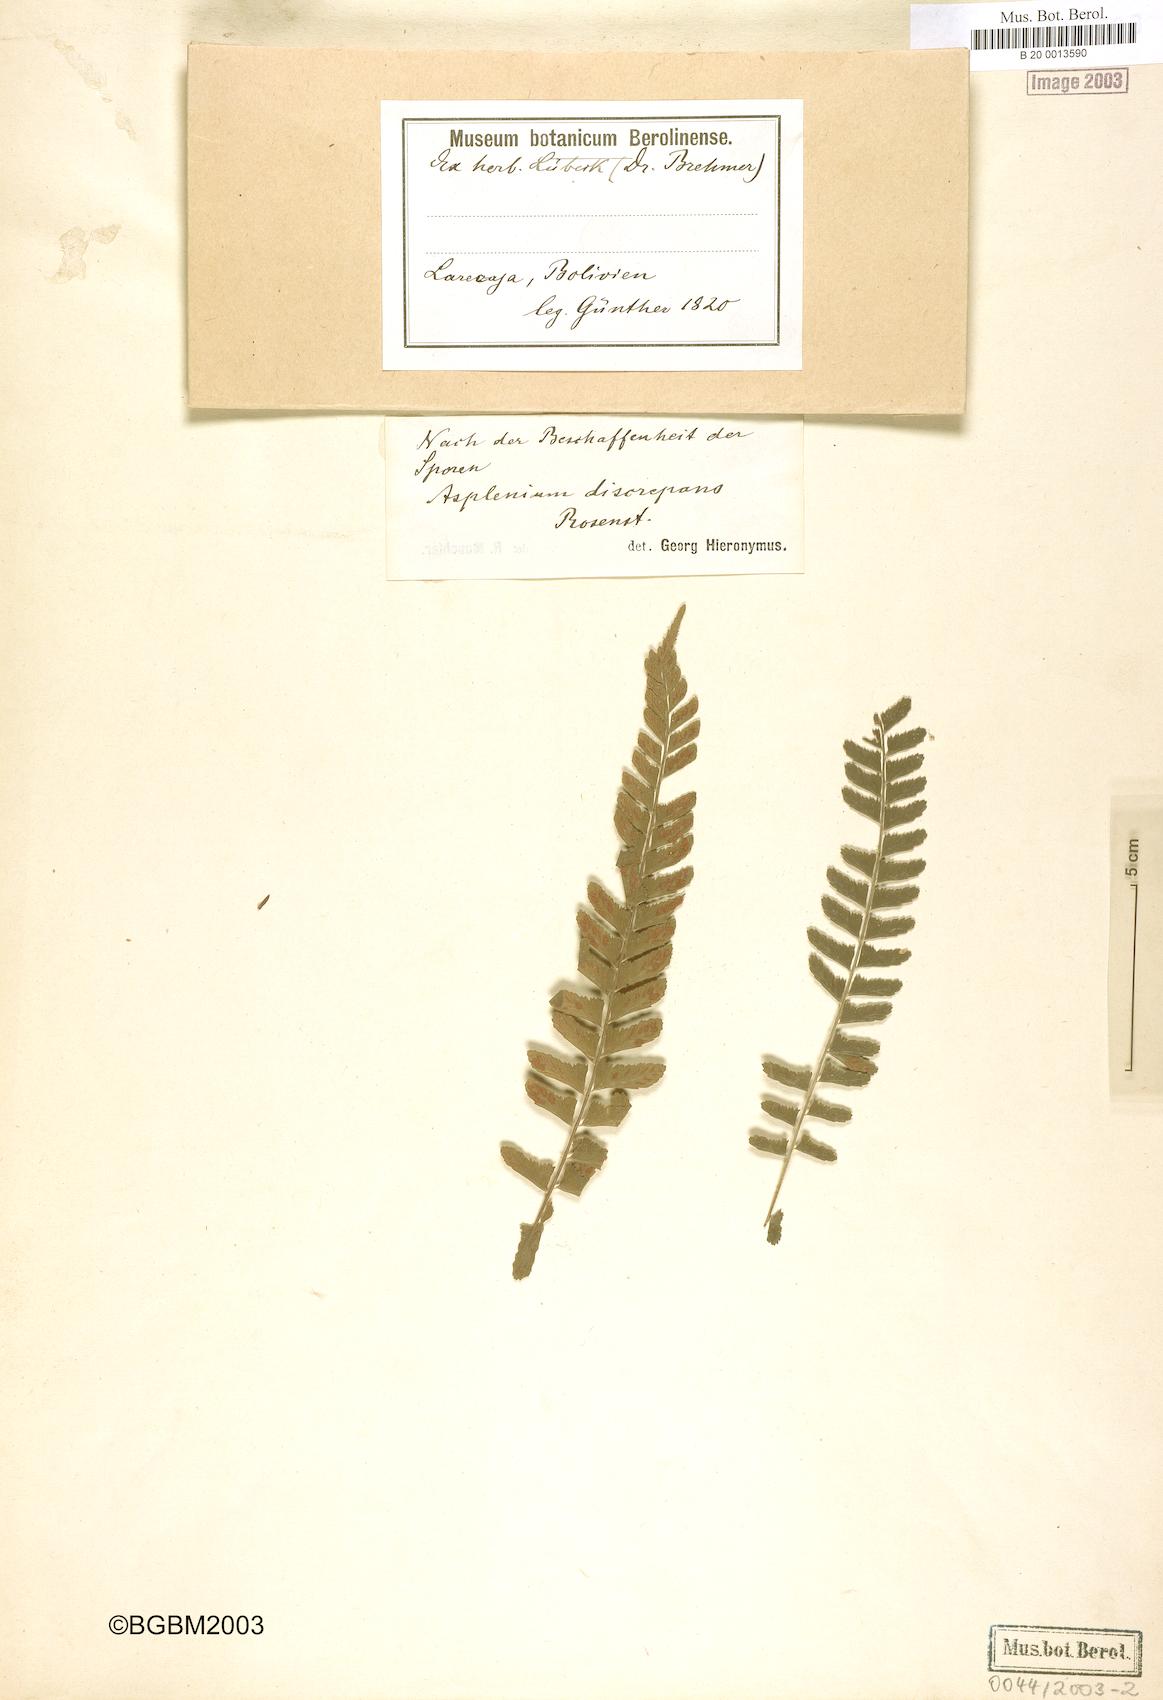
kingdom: Plantae
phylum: Tracheophyta
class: Polypodiopsida
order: Polypodiales
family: Aspleniaceae
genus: Asplenium
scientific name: Asplenium discrepans
